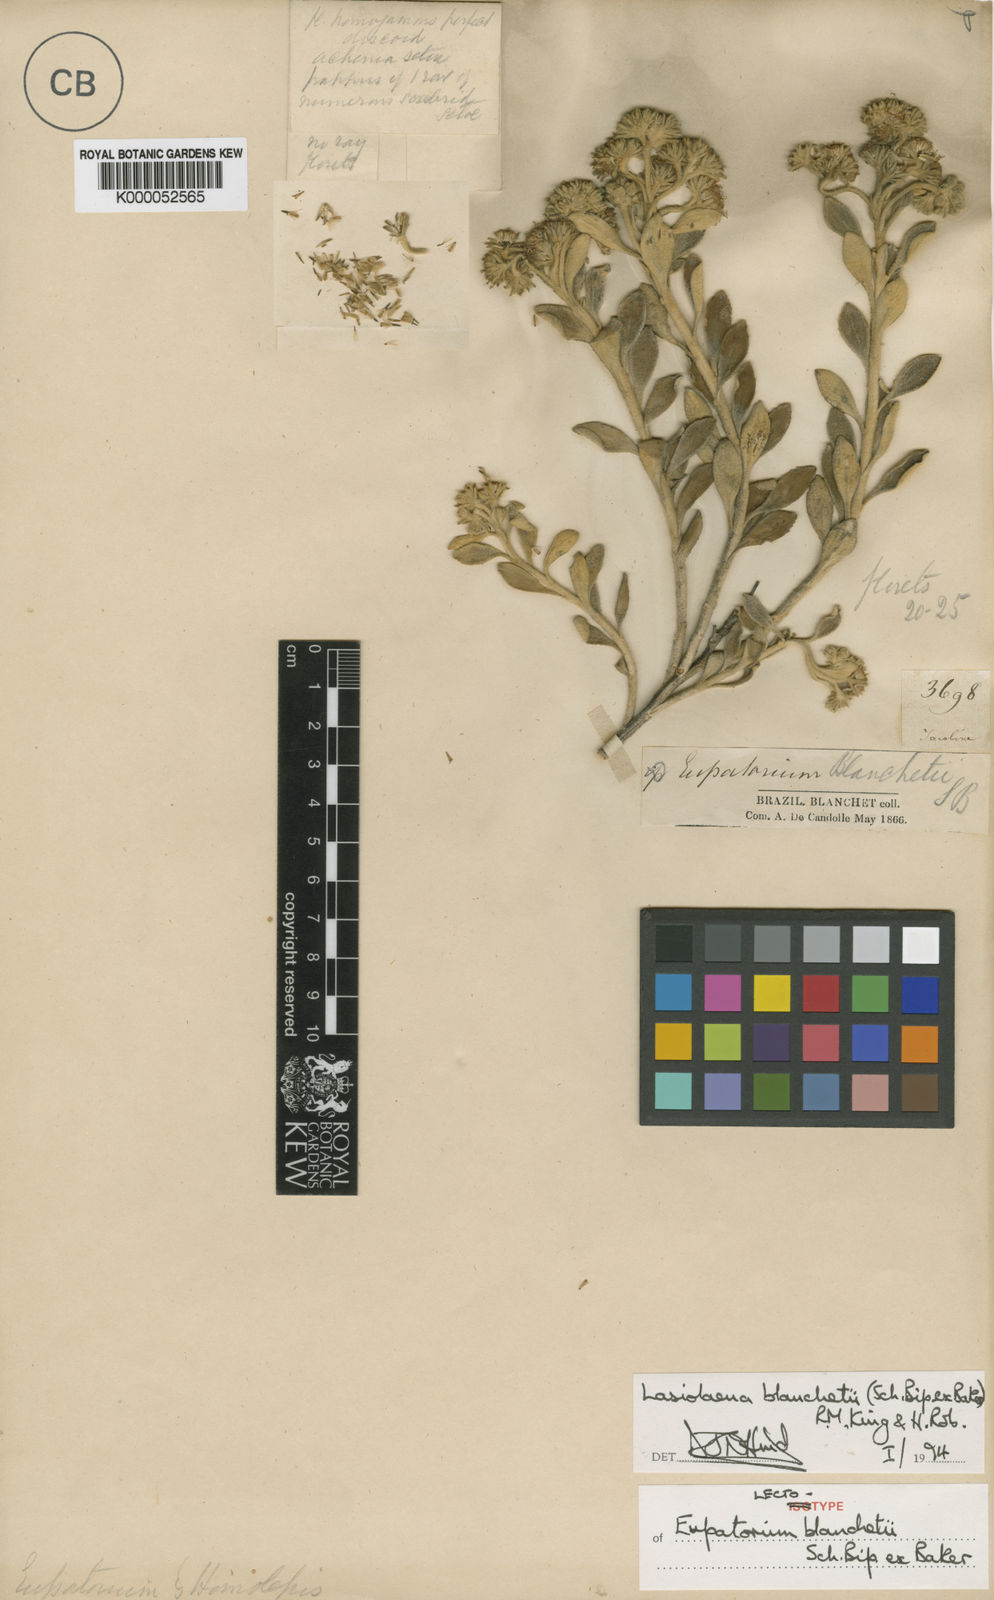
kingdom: Plantae
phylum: Tracheophyta
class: Magnoliopsida
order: Asterales
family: Asteraceae
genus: Lasiolaena
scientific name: Lasiolaena blanchetii
